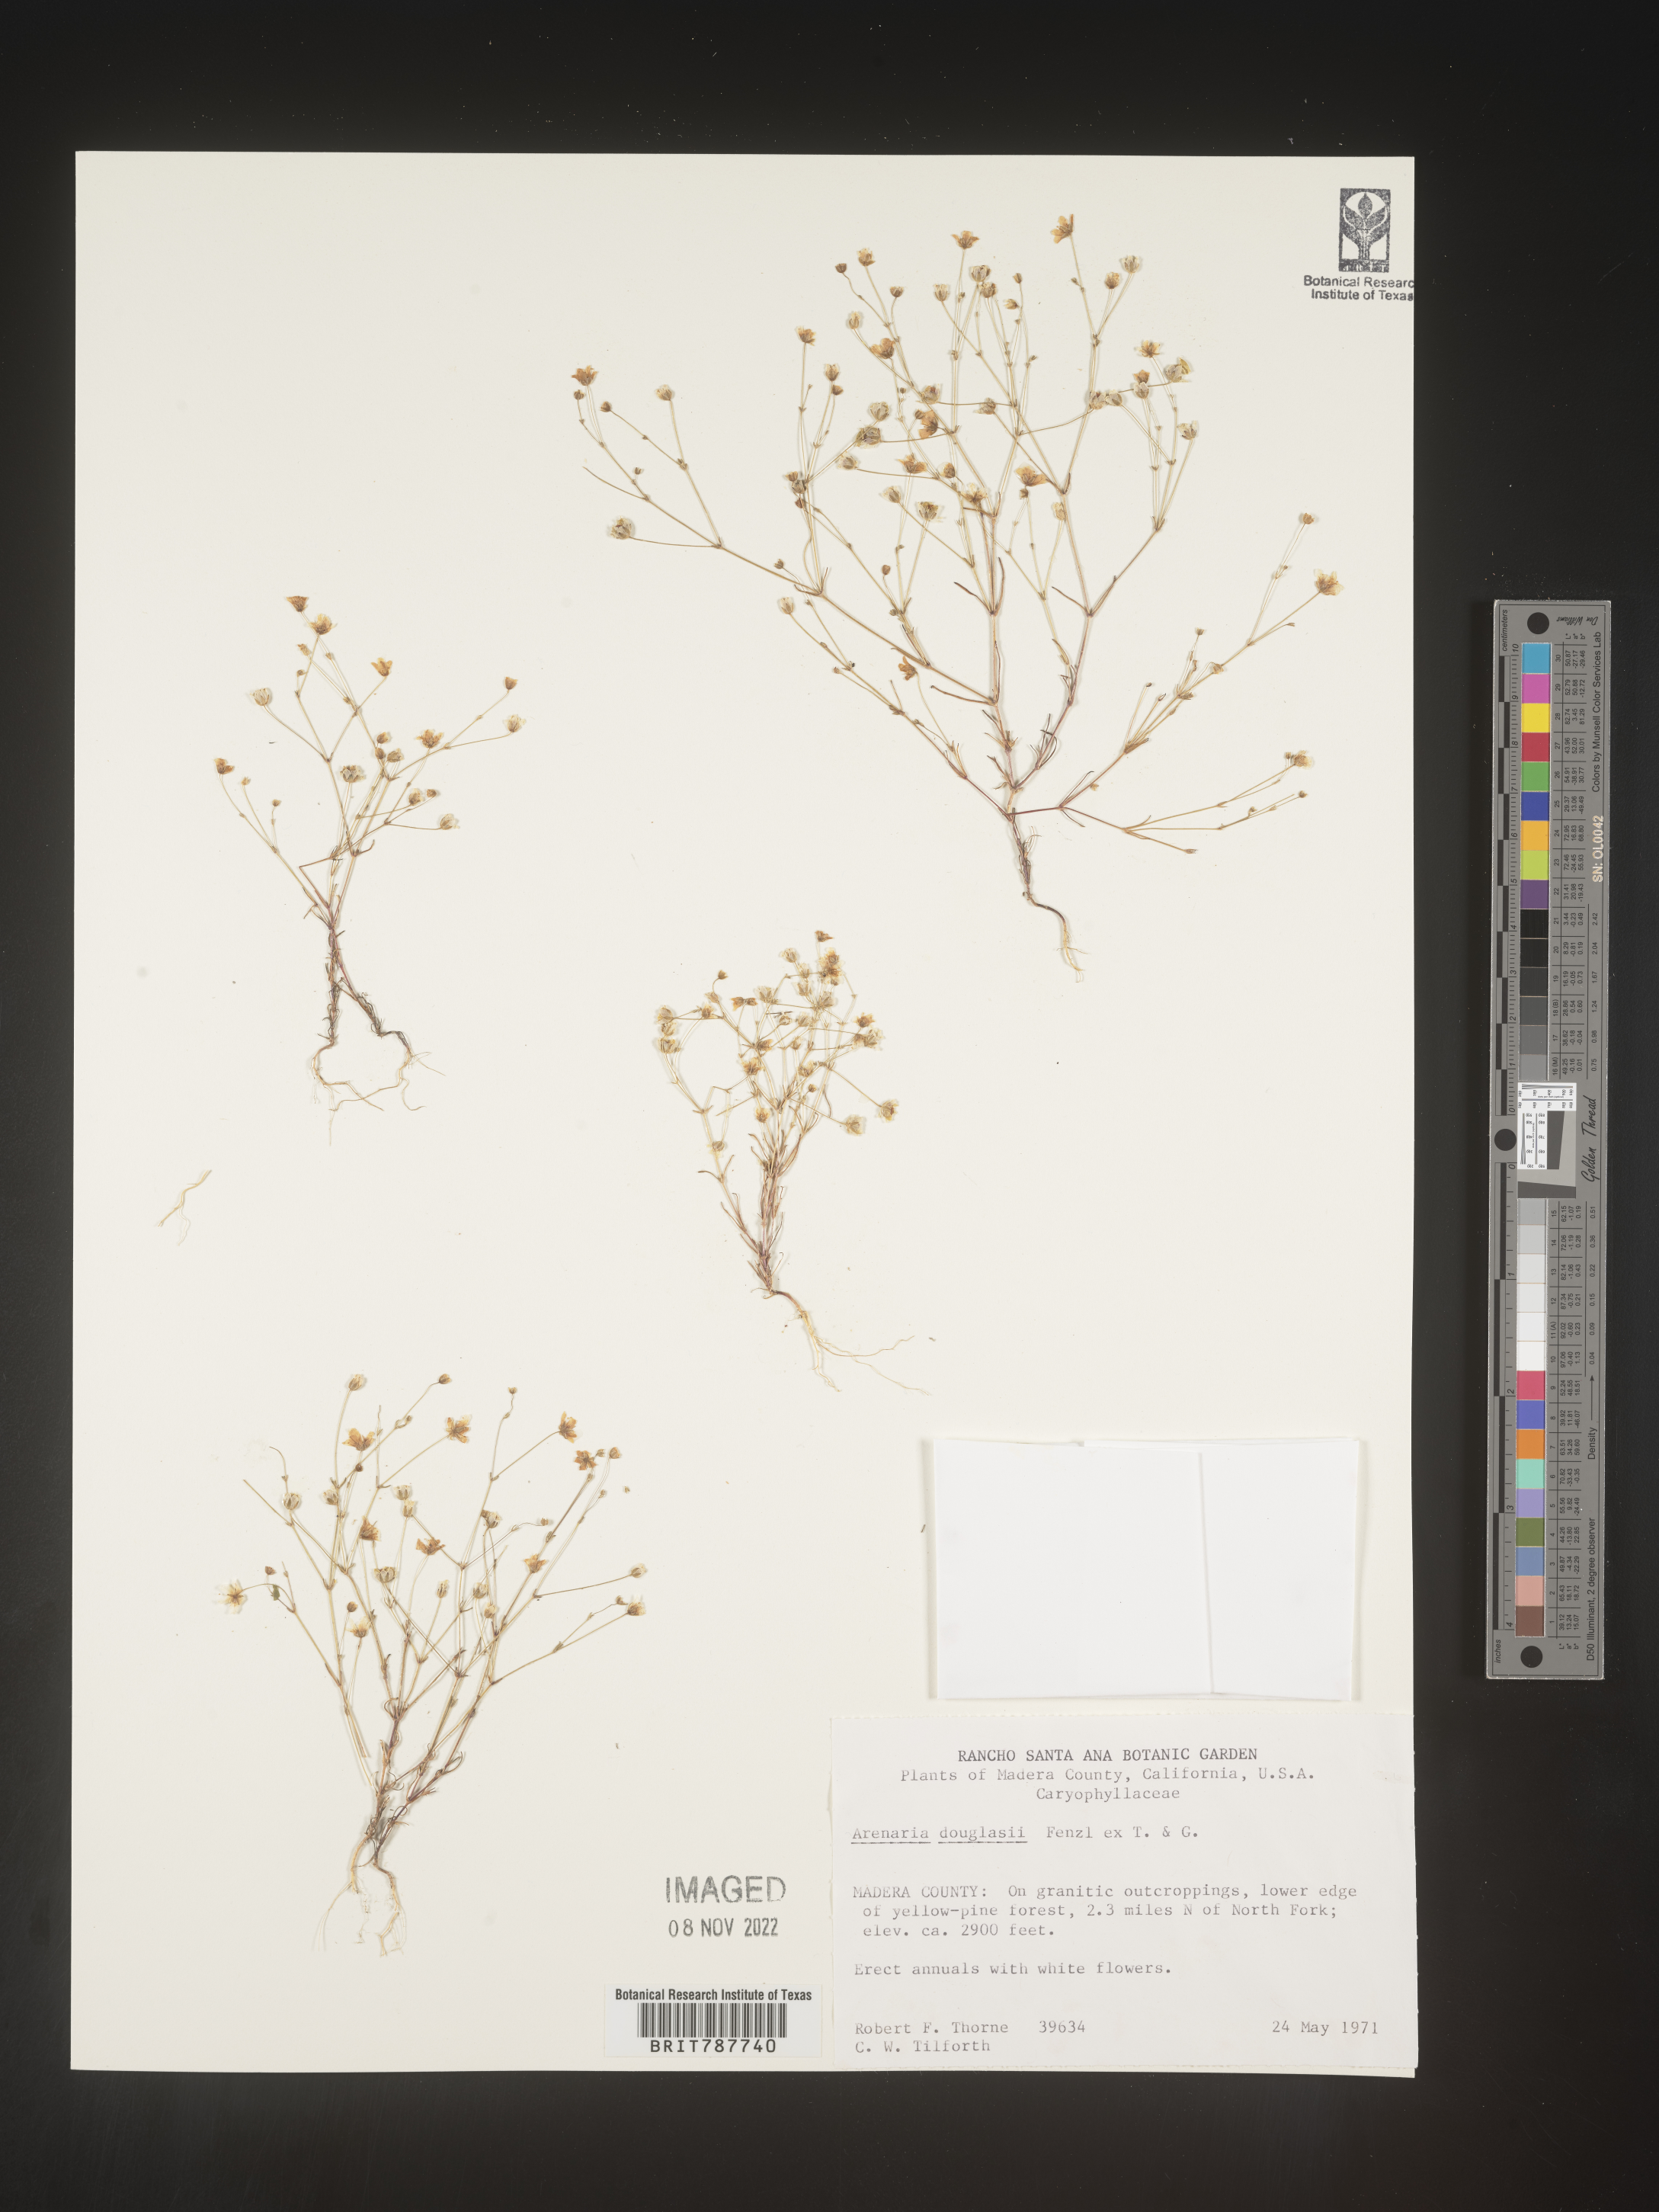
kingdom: Plantae
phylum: Tracheophyta
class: Magnoliopsida
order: Caryophyllales
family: Caryophyllaceae
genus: Arenaria
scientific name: Arenaria
